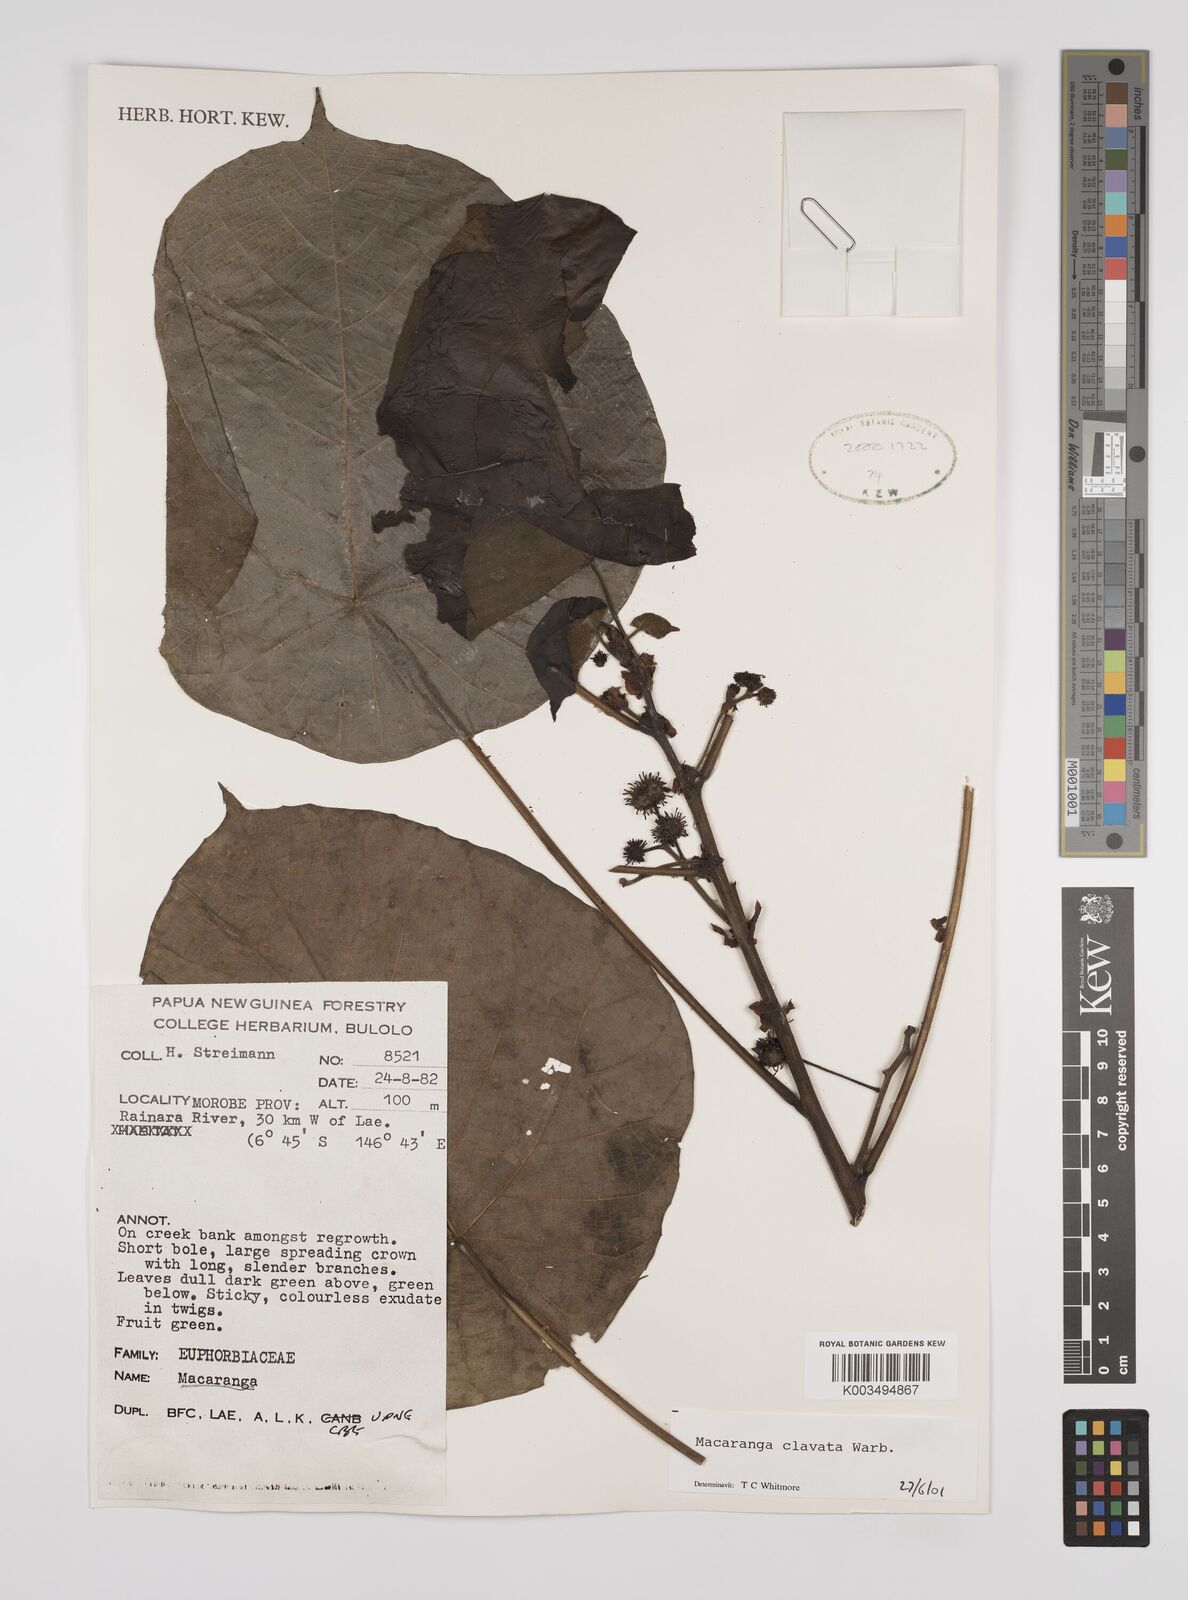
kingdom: Plantae
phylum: Tracheophyta
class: Magnoliopsida
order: Malpighiales
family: Euphorbiaceae
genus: Macaranga
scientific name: Macaranga clavata
